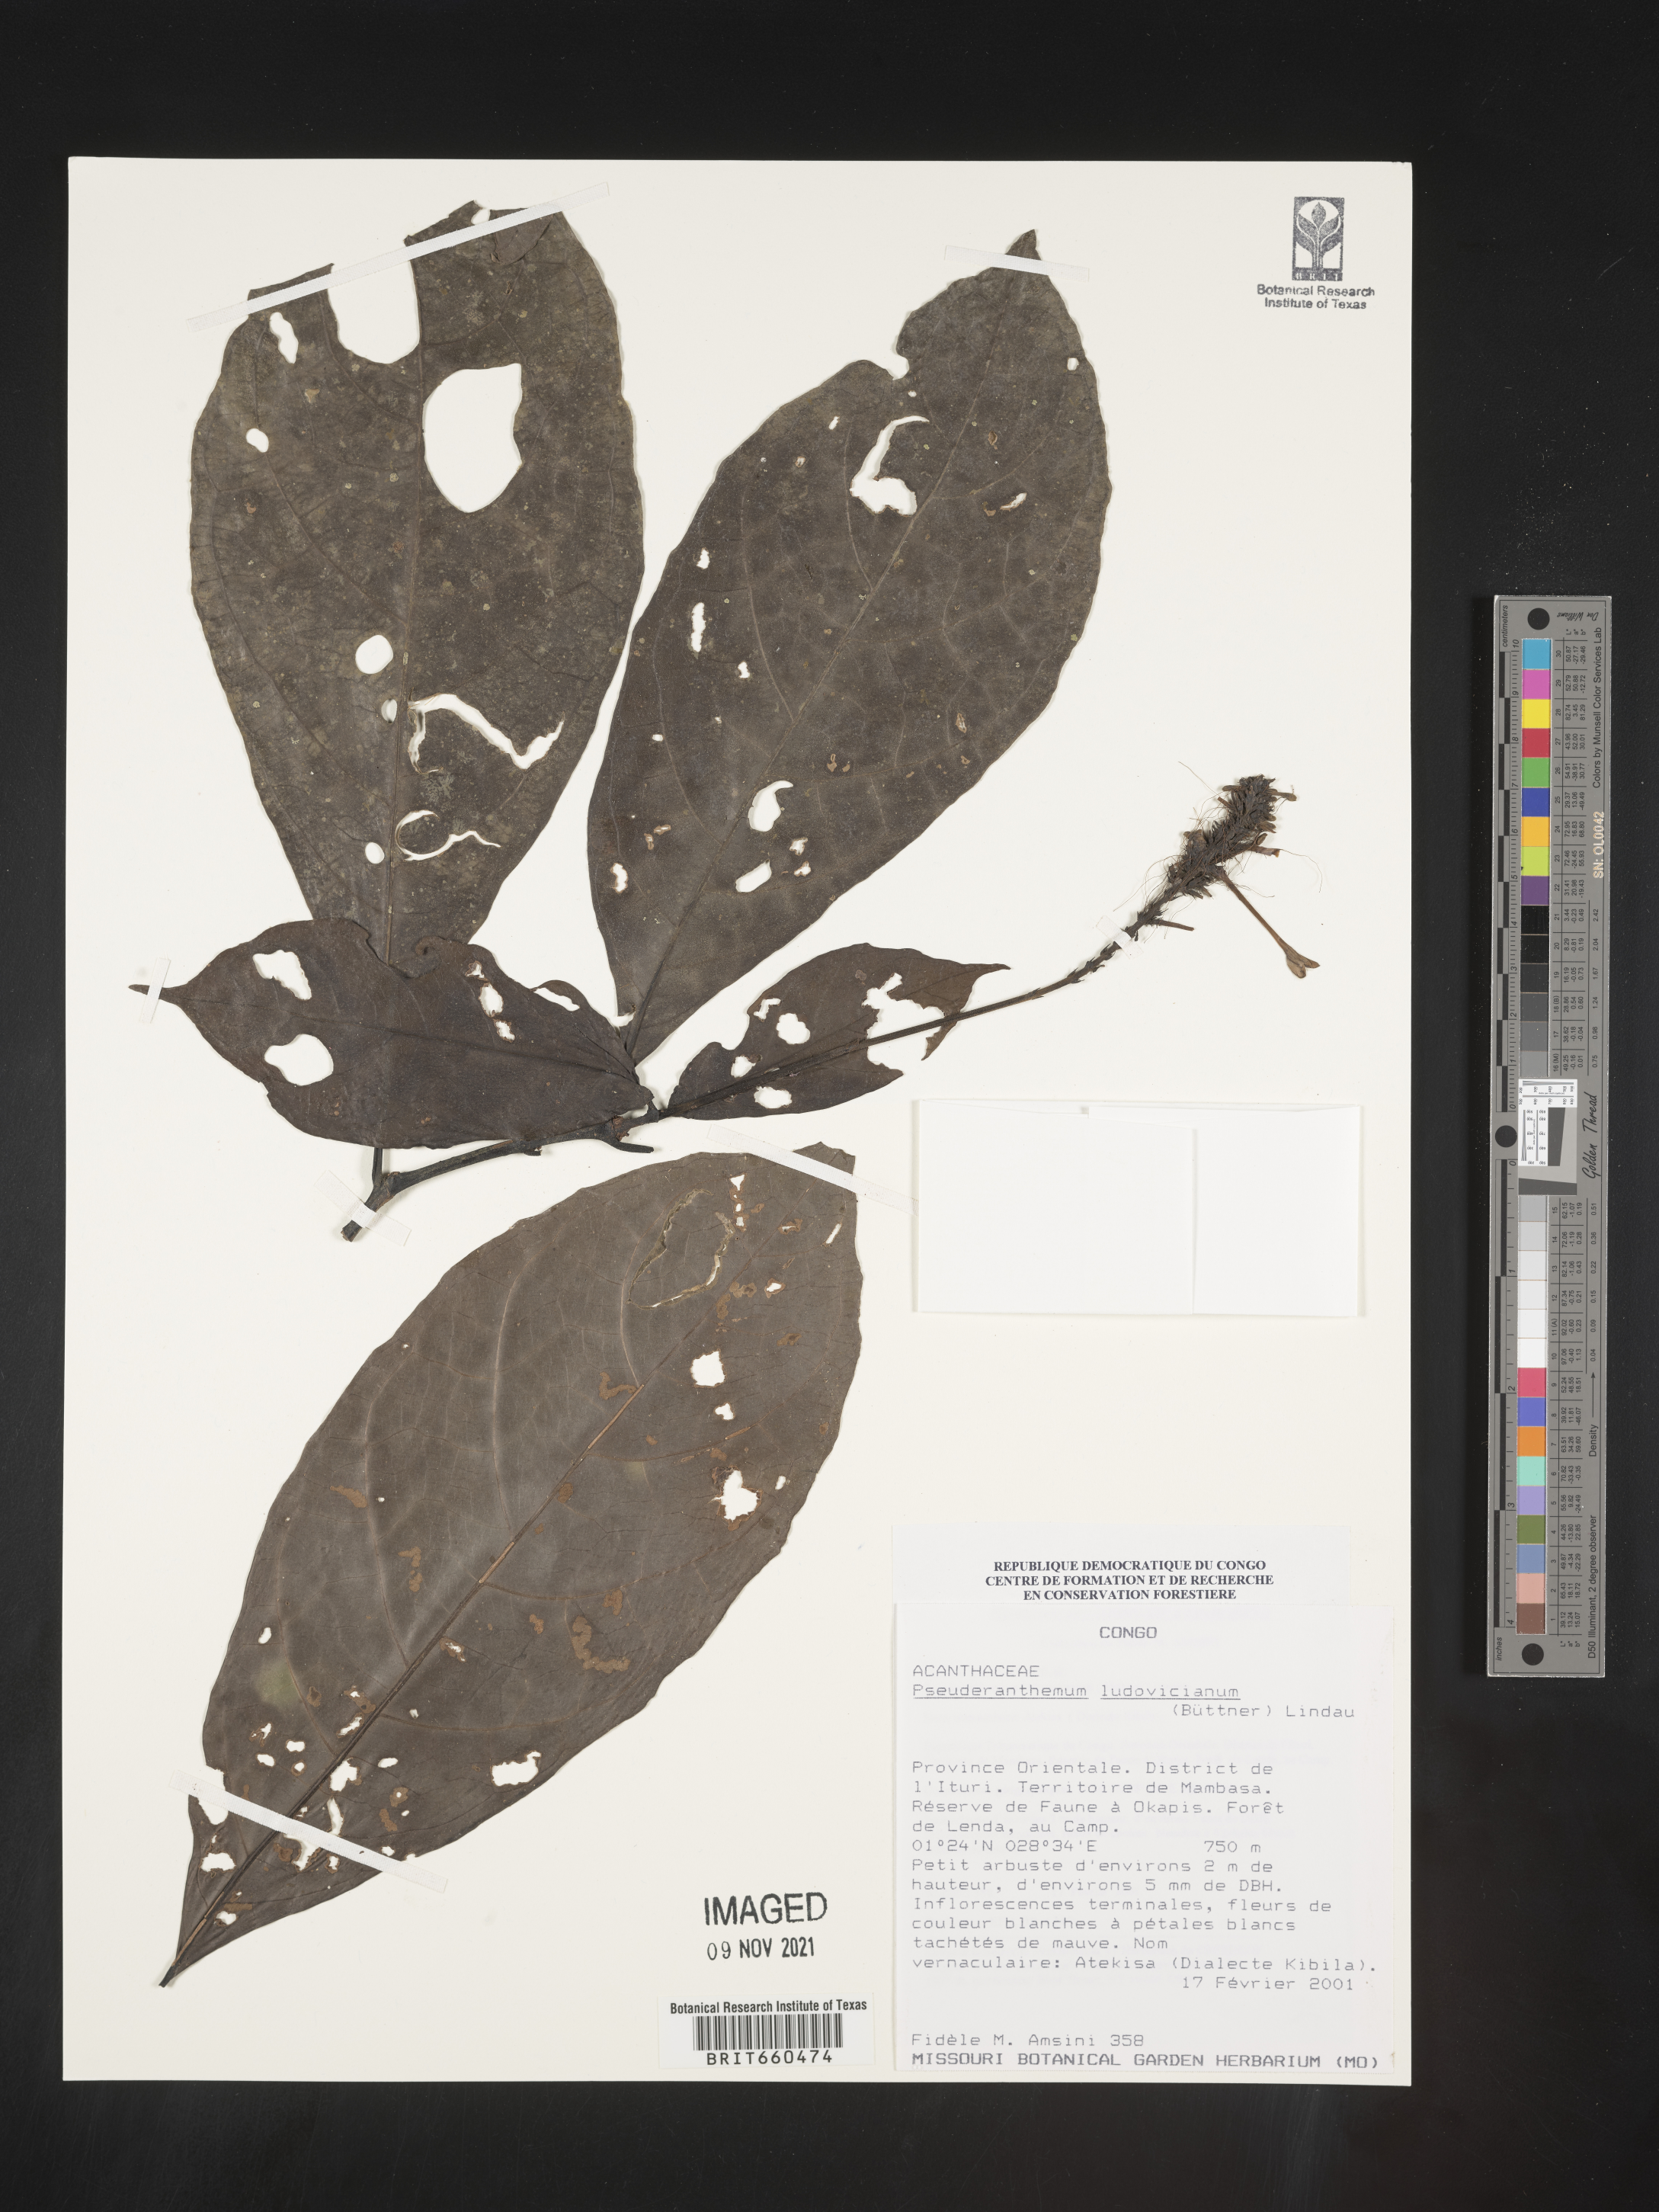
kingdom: Plantae
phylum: Tracheophyta
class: Magnoliopsida
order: Lamiales
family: Acanthaceae
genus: Pseuderanthemum
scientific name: Pseuderanthemum
